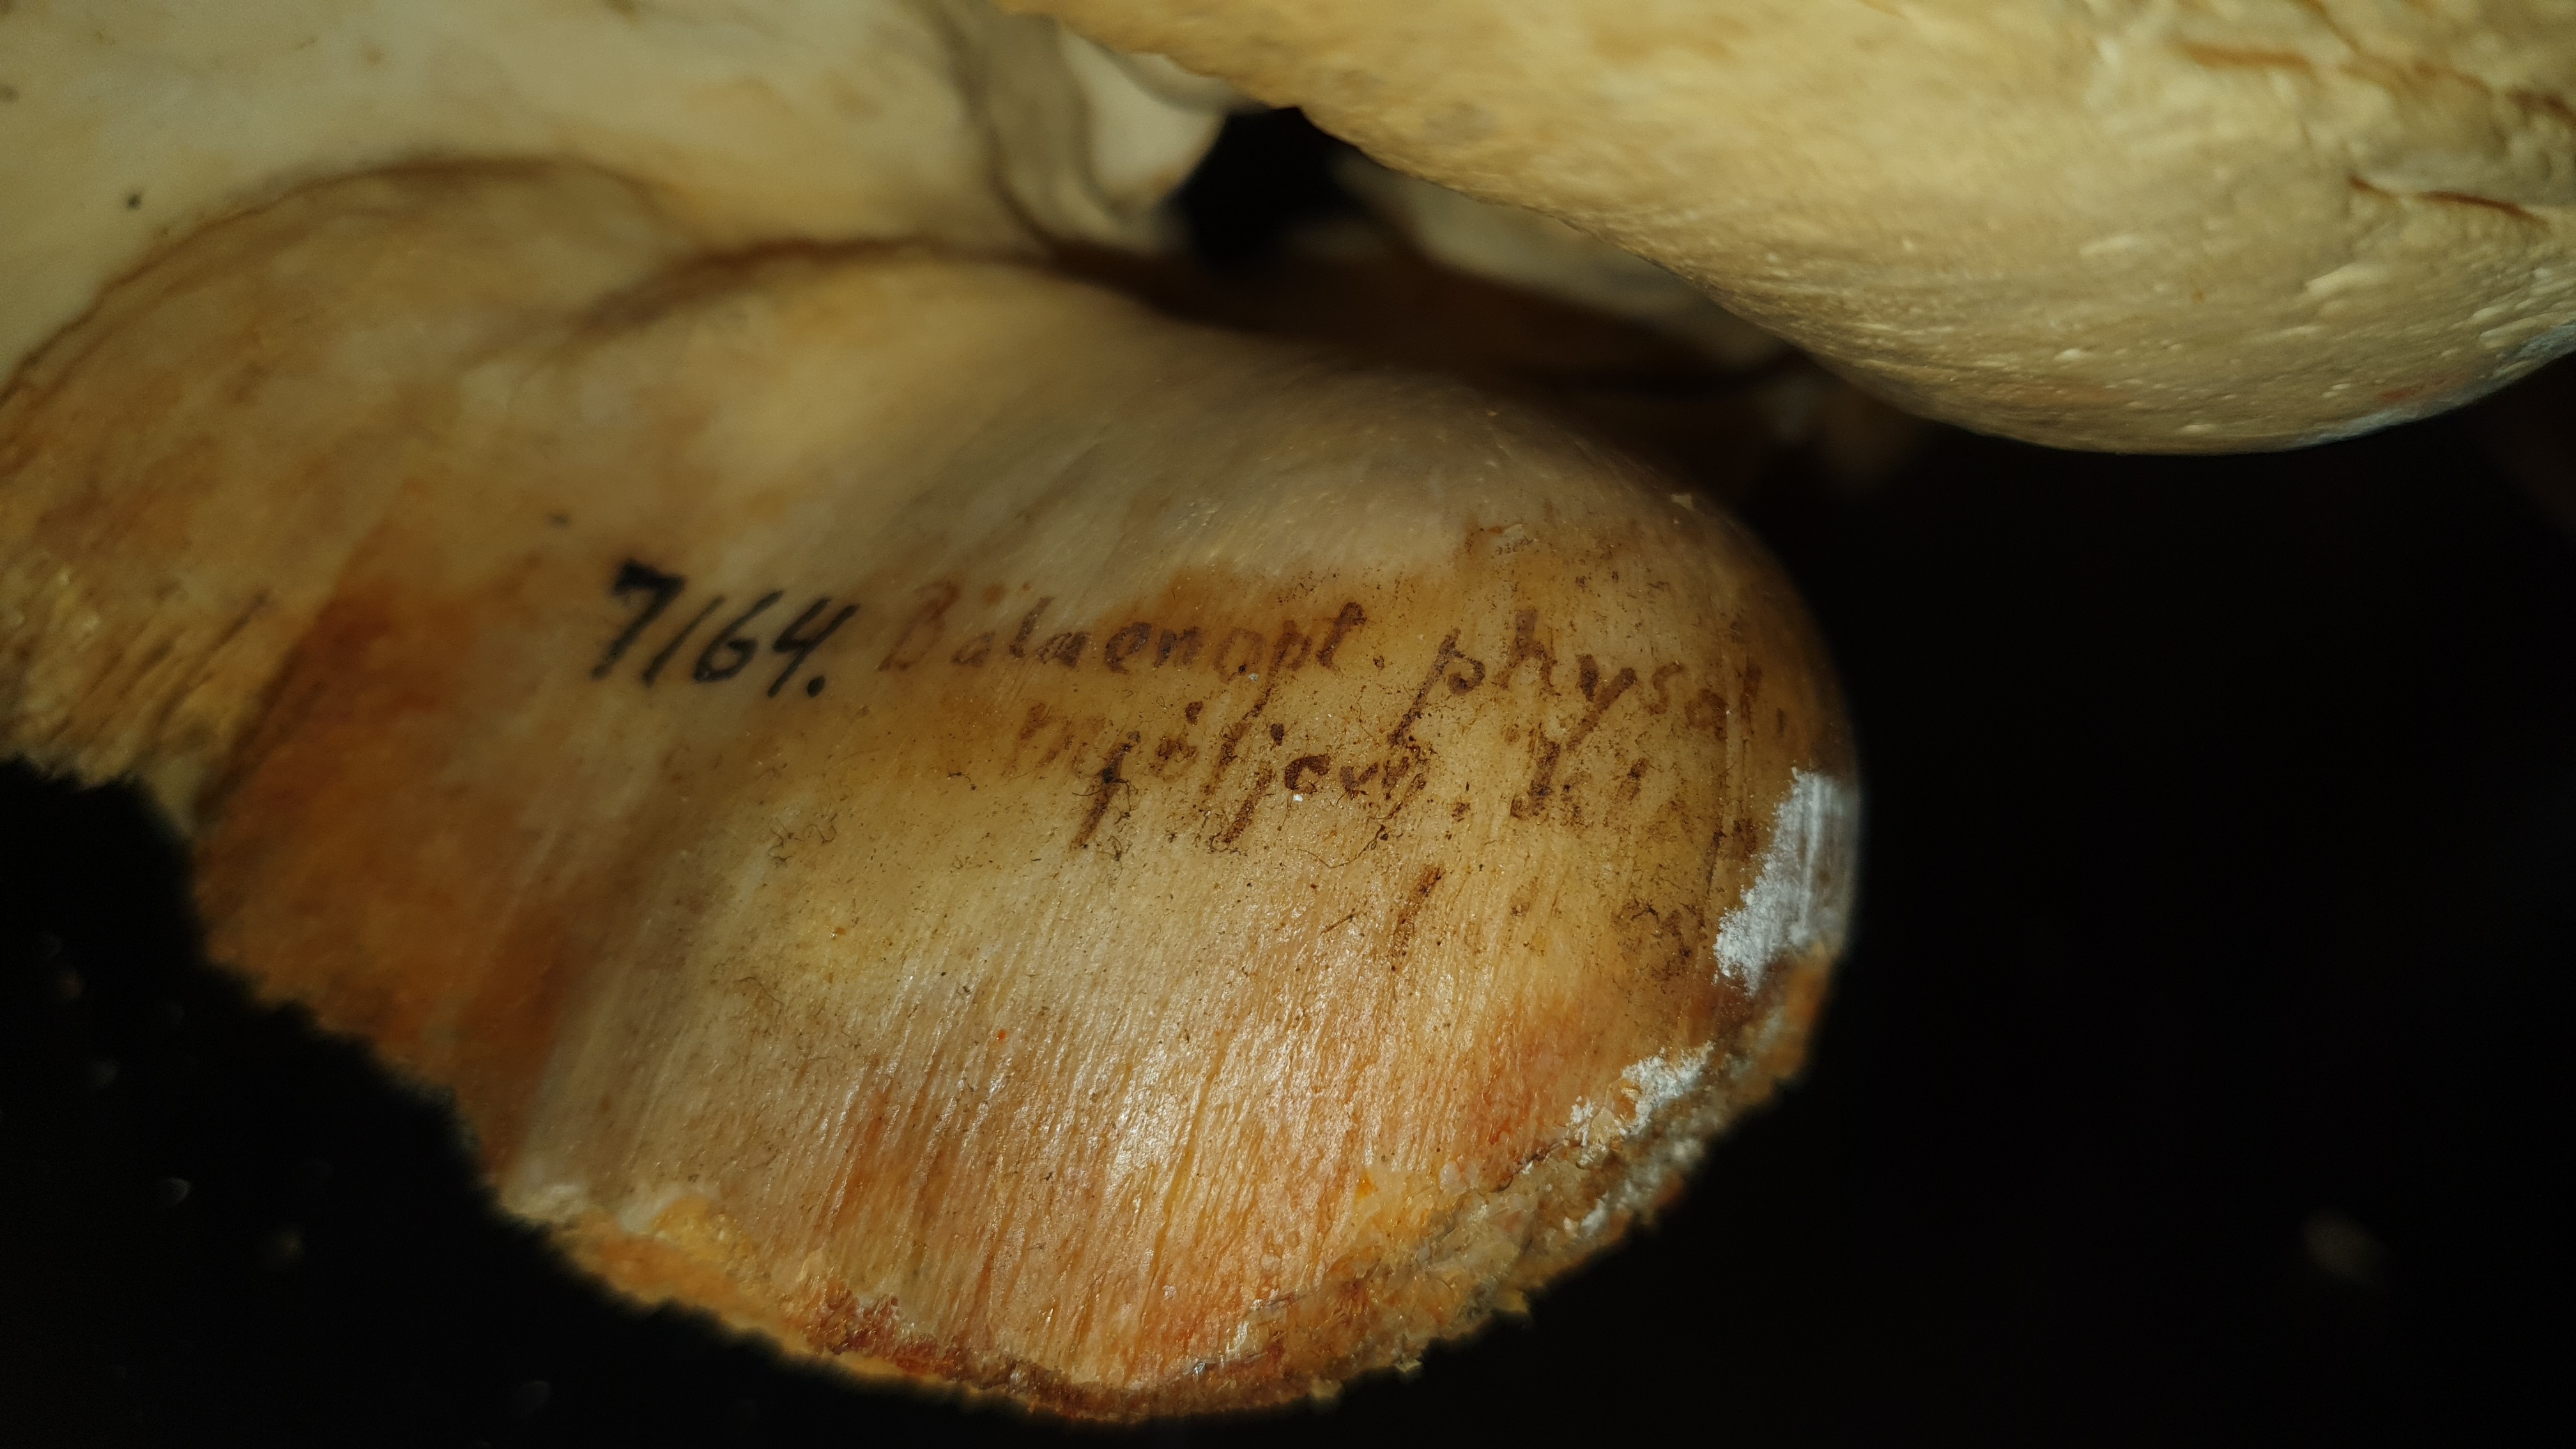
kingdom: Animalia
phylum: Chordata
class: Mammalia
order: Cetacea
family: Balaenopteridae
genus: Balaenoptera
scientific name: Balaenoptera physalus
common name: Fin whale
